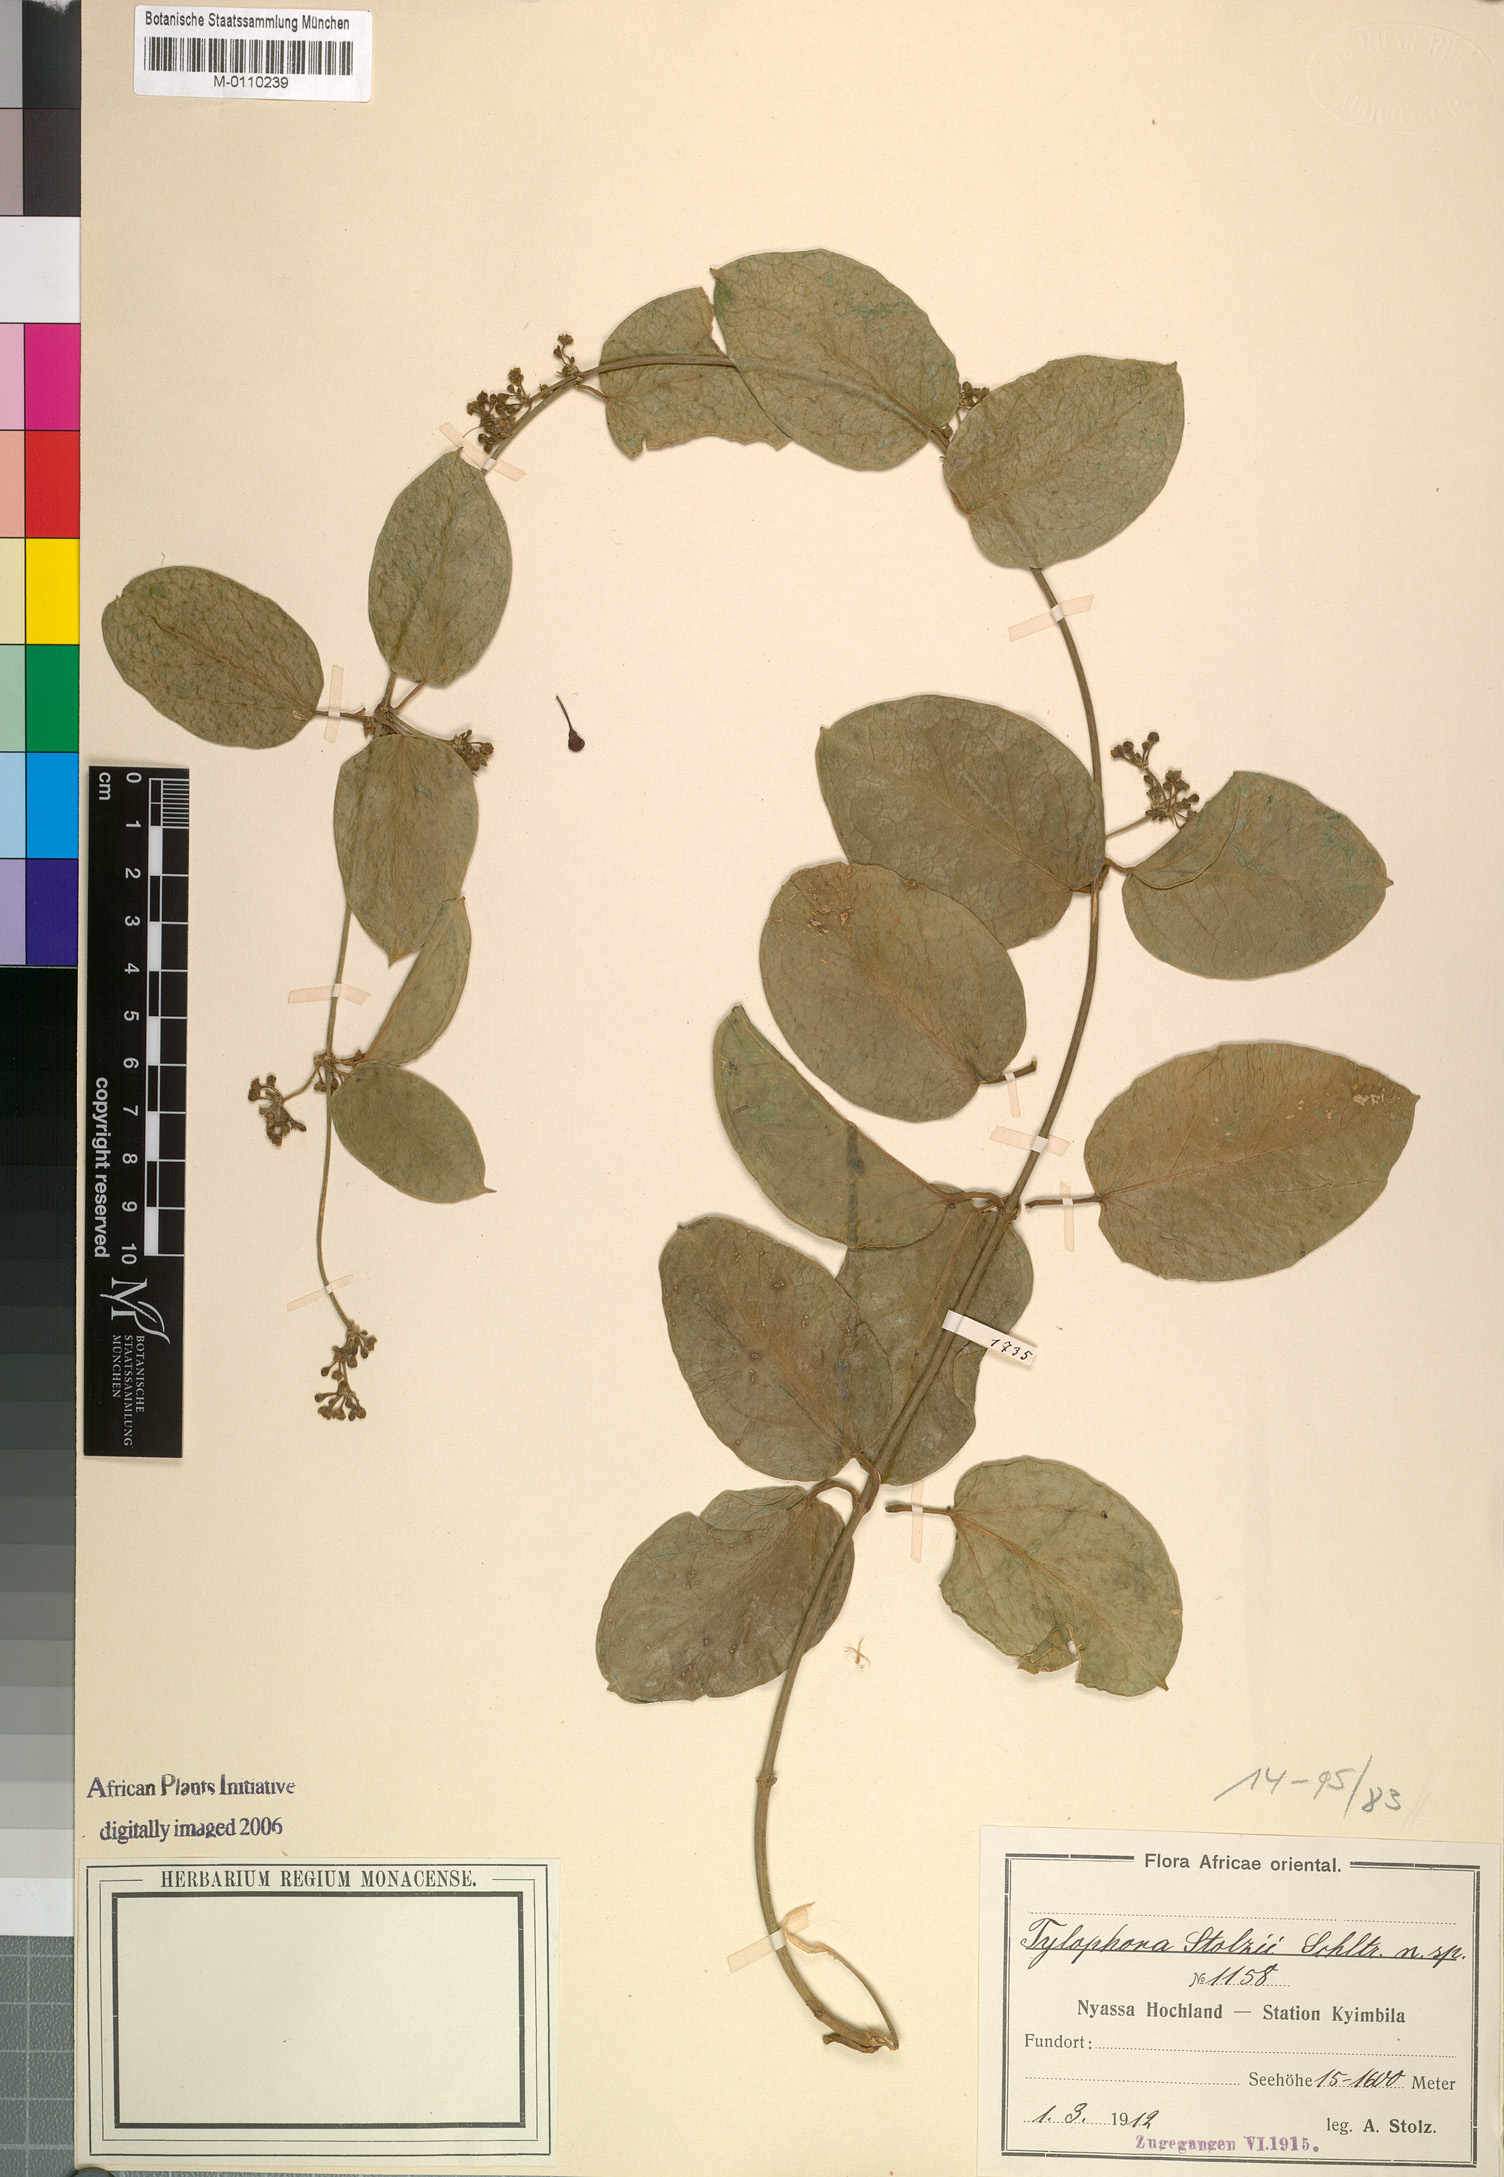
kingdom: Plantae
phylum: Tracheophyta
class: Magnoliopsida
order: Gentianales
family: Apocynaceae
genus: Vincetoxicum
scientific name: Vincetoxicum
